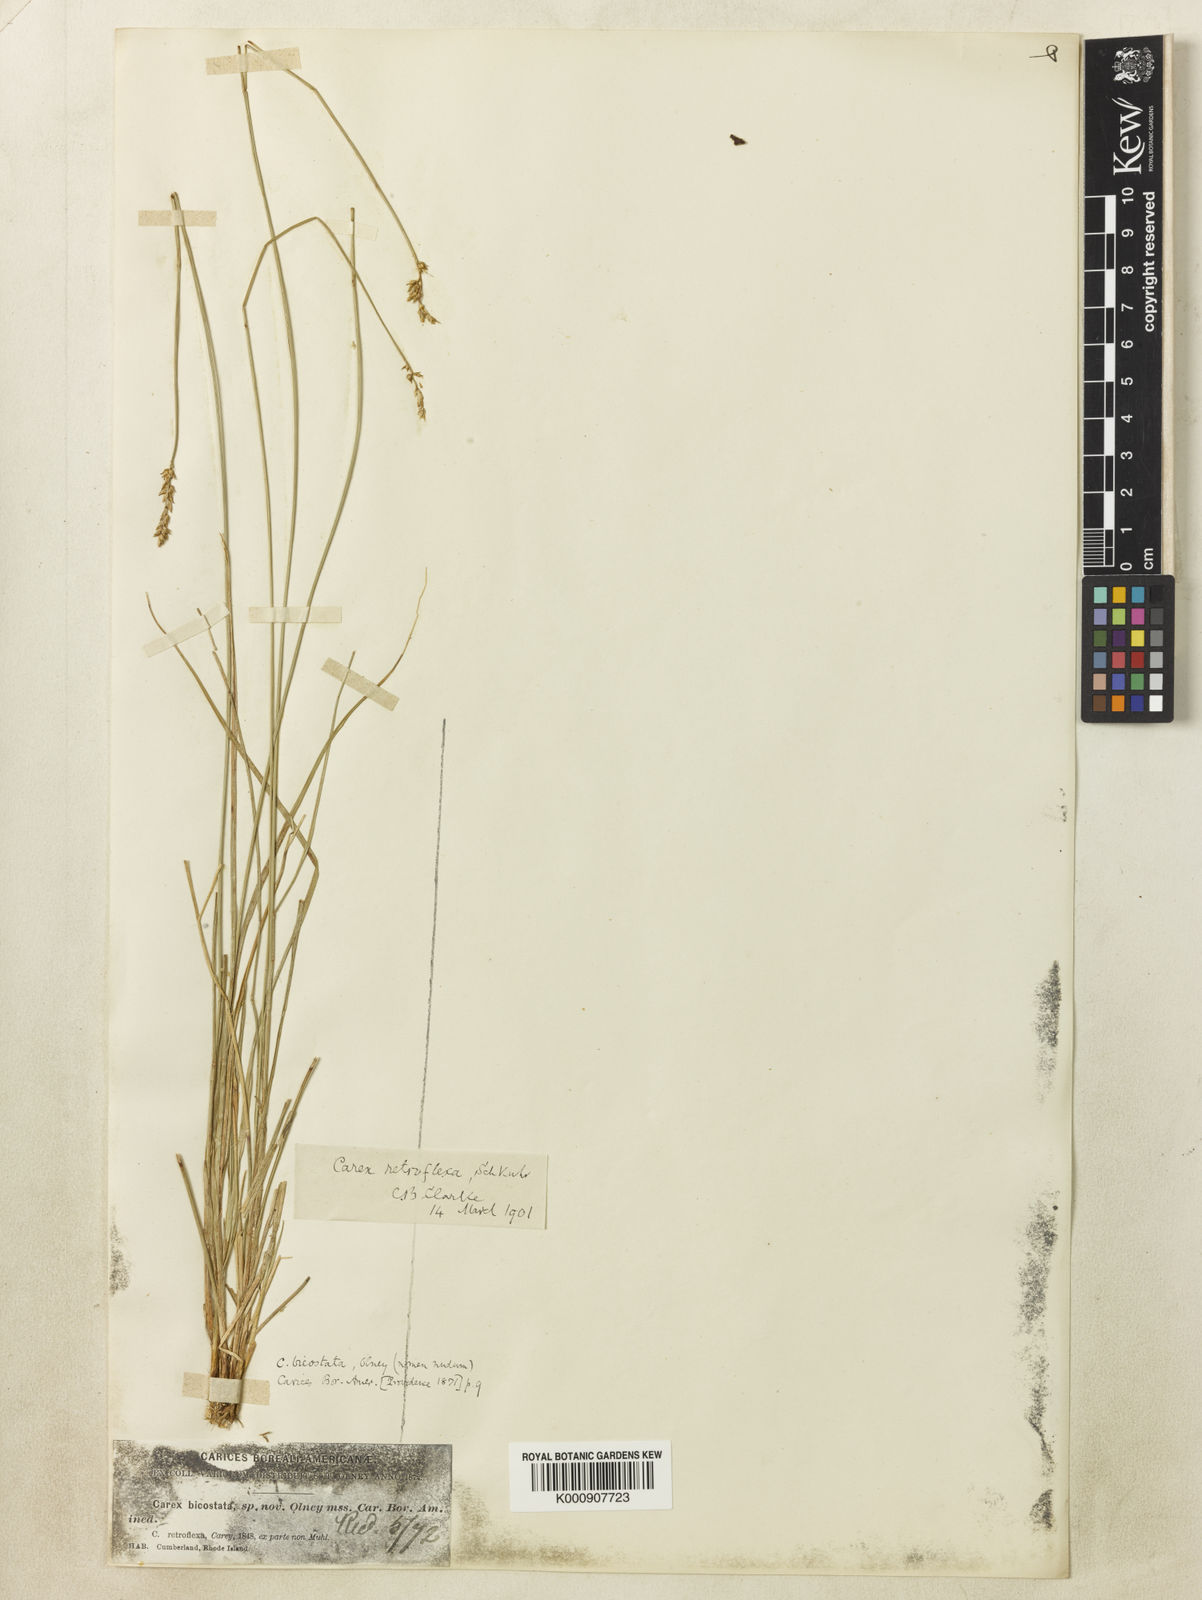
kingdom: Plantae
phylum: Tracheophyta
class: Liliopsida
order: Poales
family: Cyperaceae
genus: Carex
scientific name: Carex retroflexa
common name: Reflexed sedge
